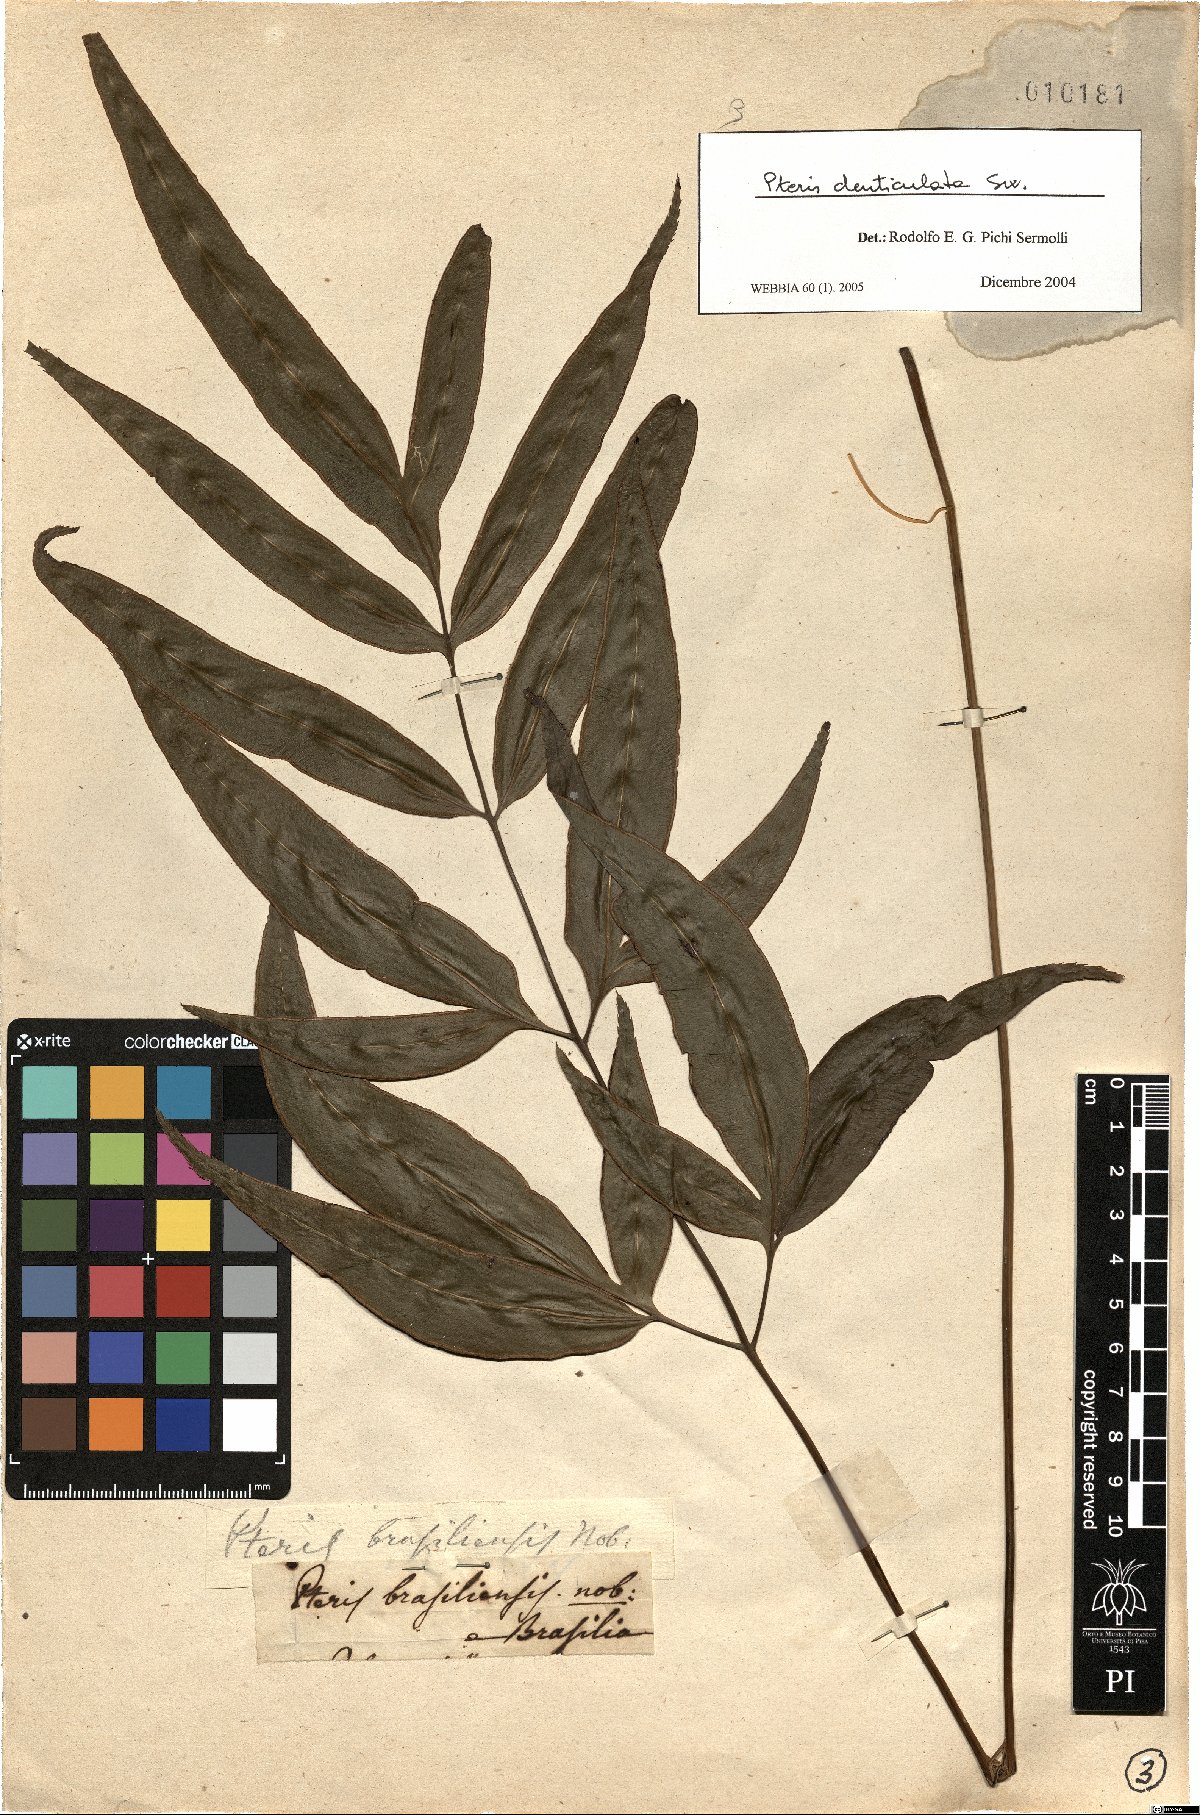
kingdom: Plantae
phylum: Tracheophyta
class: Polypodiopsida
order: Polypodiales
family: Pteridaceae
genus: Pteris
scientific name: Pteris denticulata
